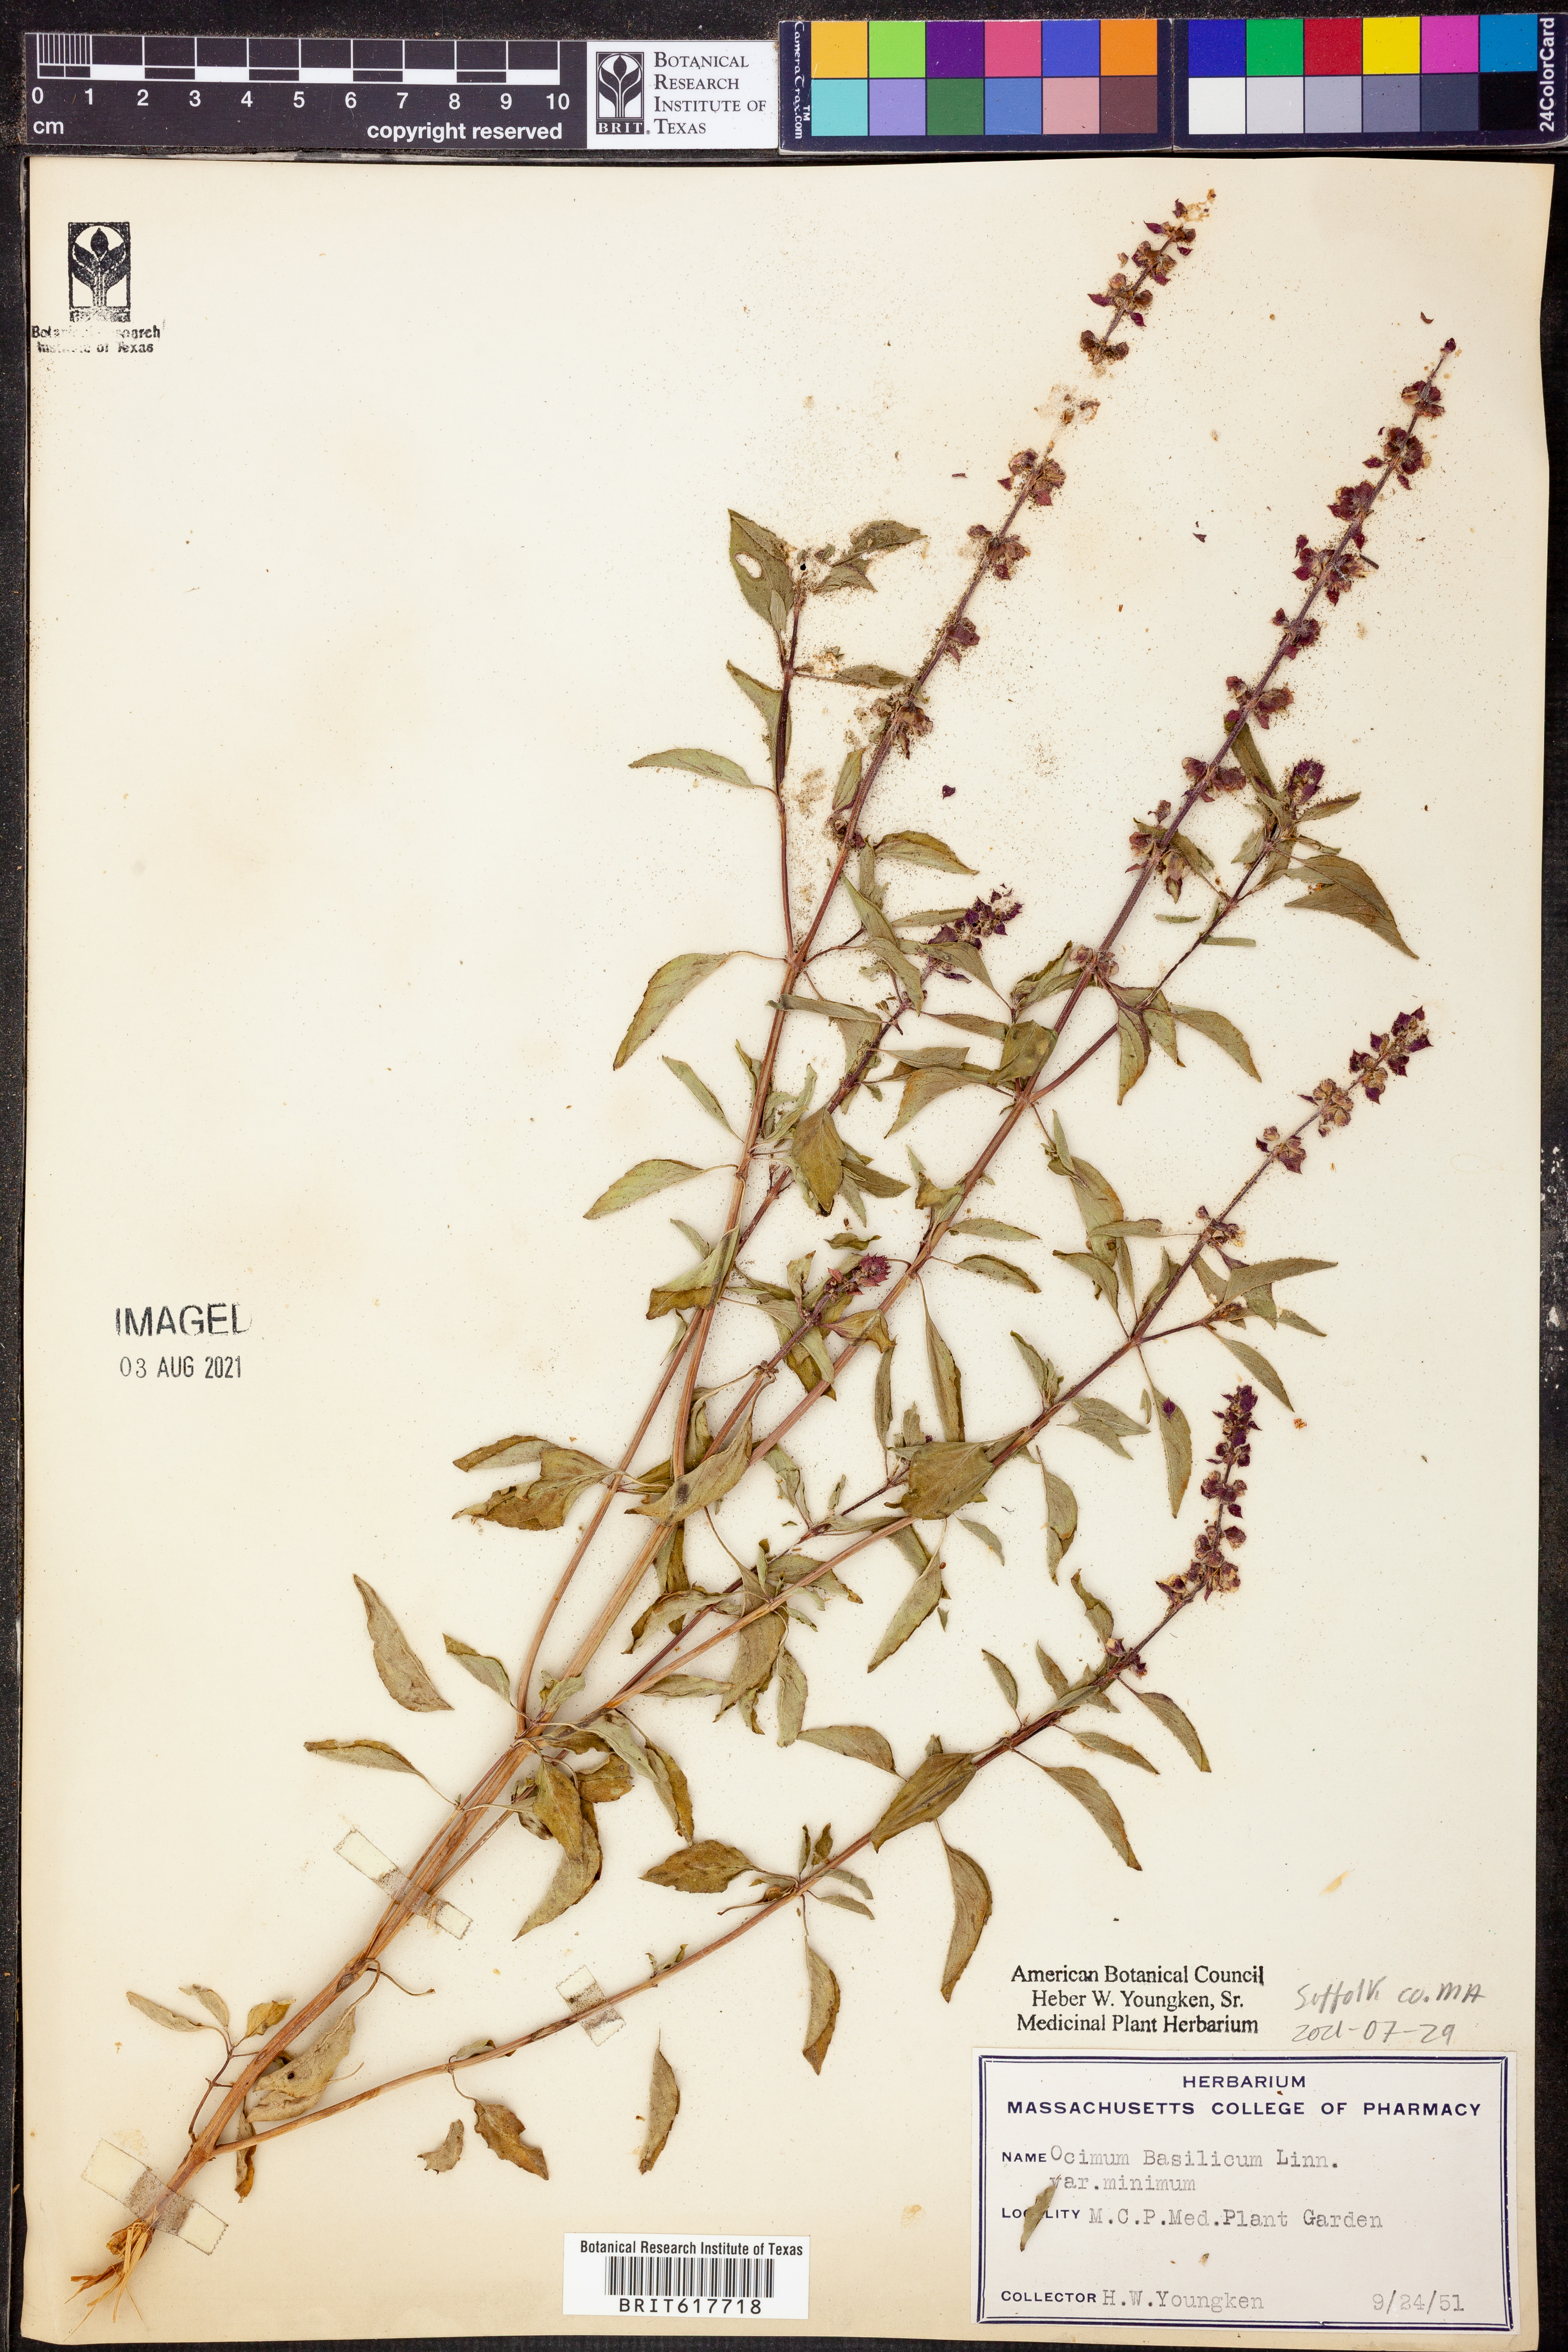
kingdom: Plantae
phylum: Tracheophyta
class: Magnoliopsida
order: Lamiales
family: Lamiaceae
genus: Ocimum
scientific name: Ocimum basilicum
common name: Sweet basil
